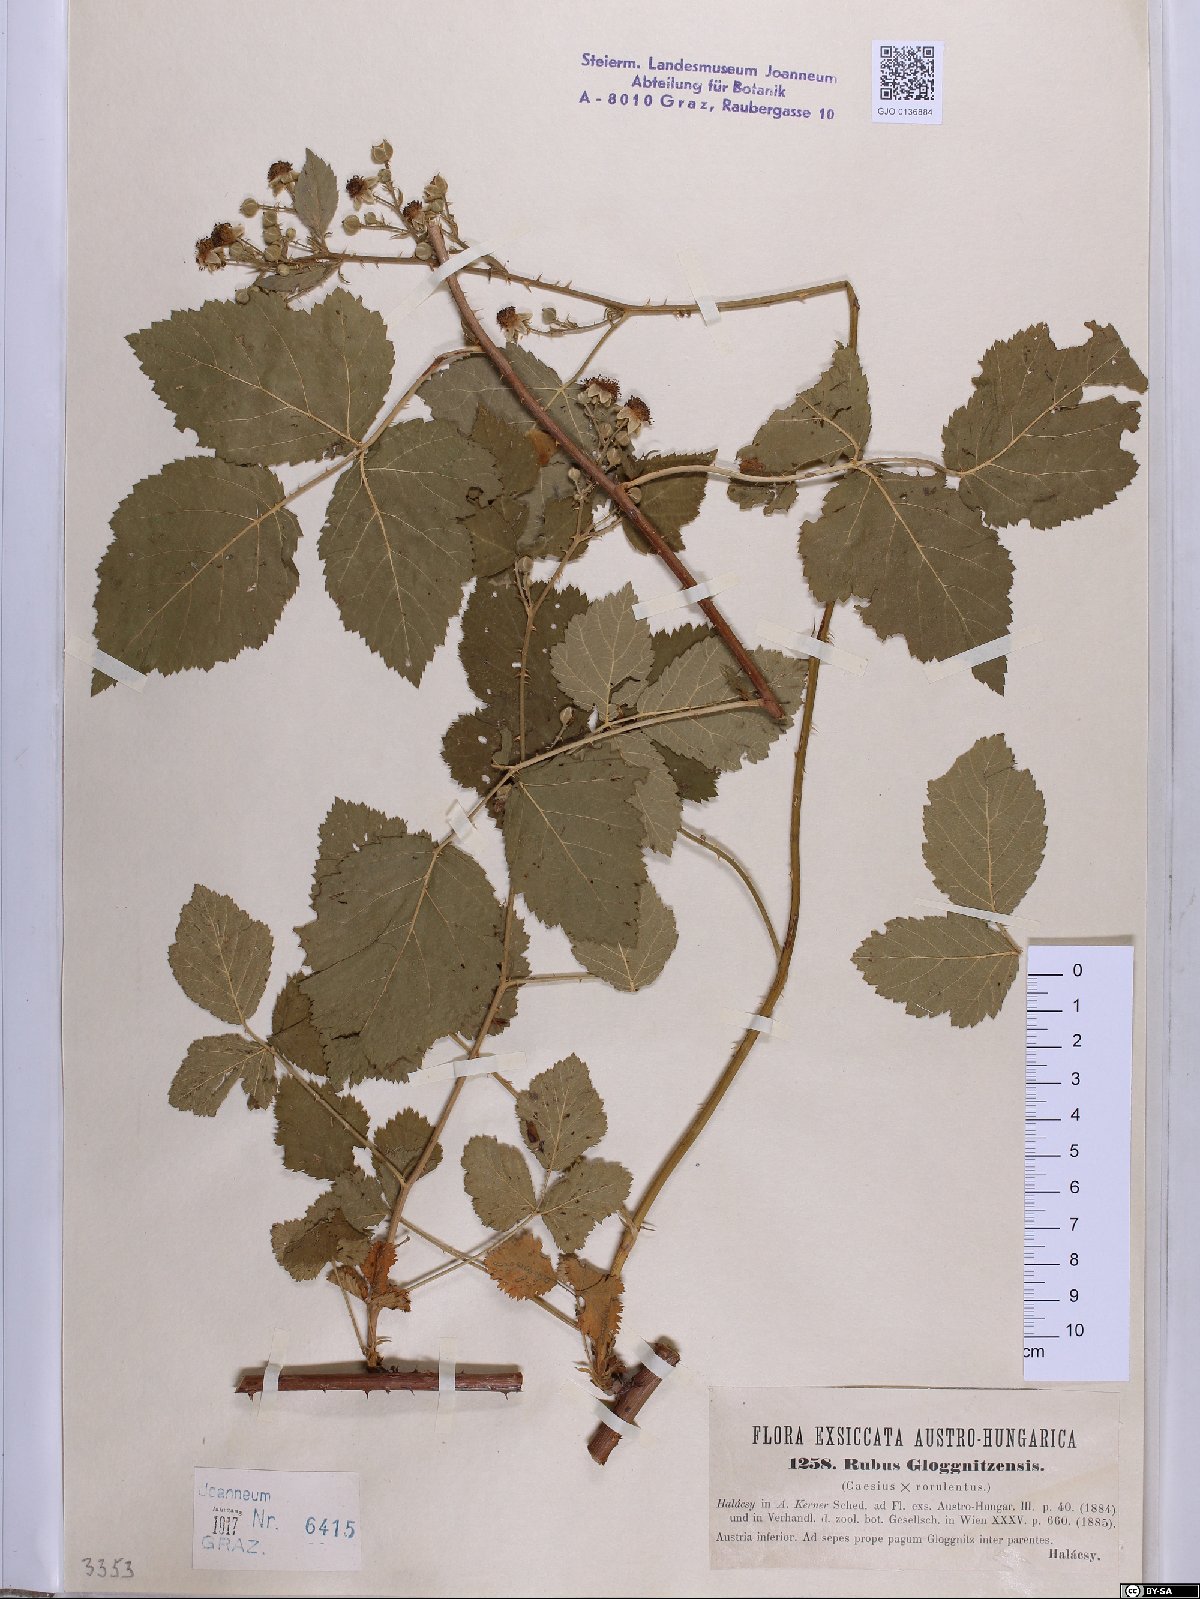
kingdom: Plantae
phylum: Tracheophyta
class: Magnoliopsida
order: Rosales
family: Rosaceae
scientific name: Rosaceae
